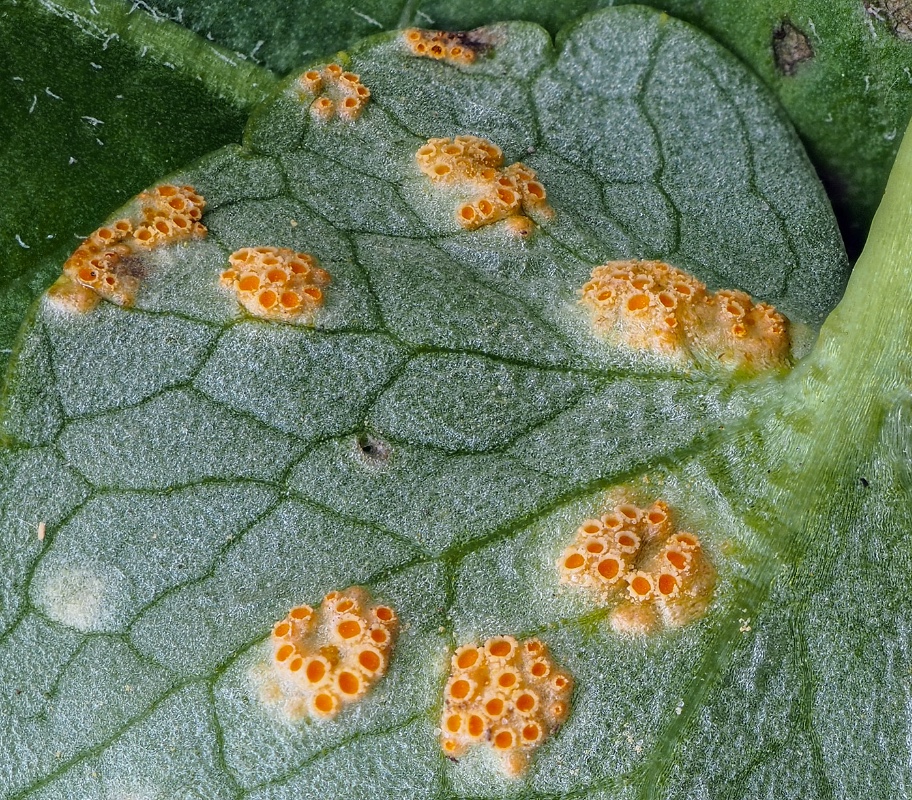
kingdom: Fungi
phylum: Basidiomycota
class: Pucciniomycetes
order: Pucciniales
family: Pucciniaceae
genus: Uromyces
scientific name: Uromyces dactylidis
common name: ranunkel-encellerust
